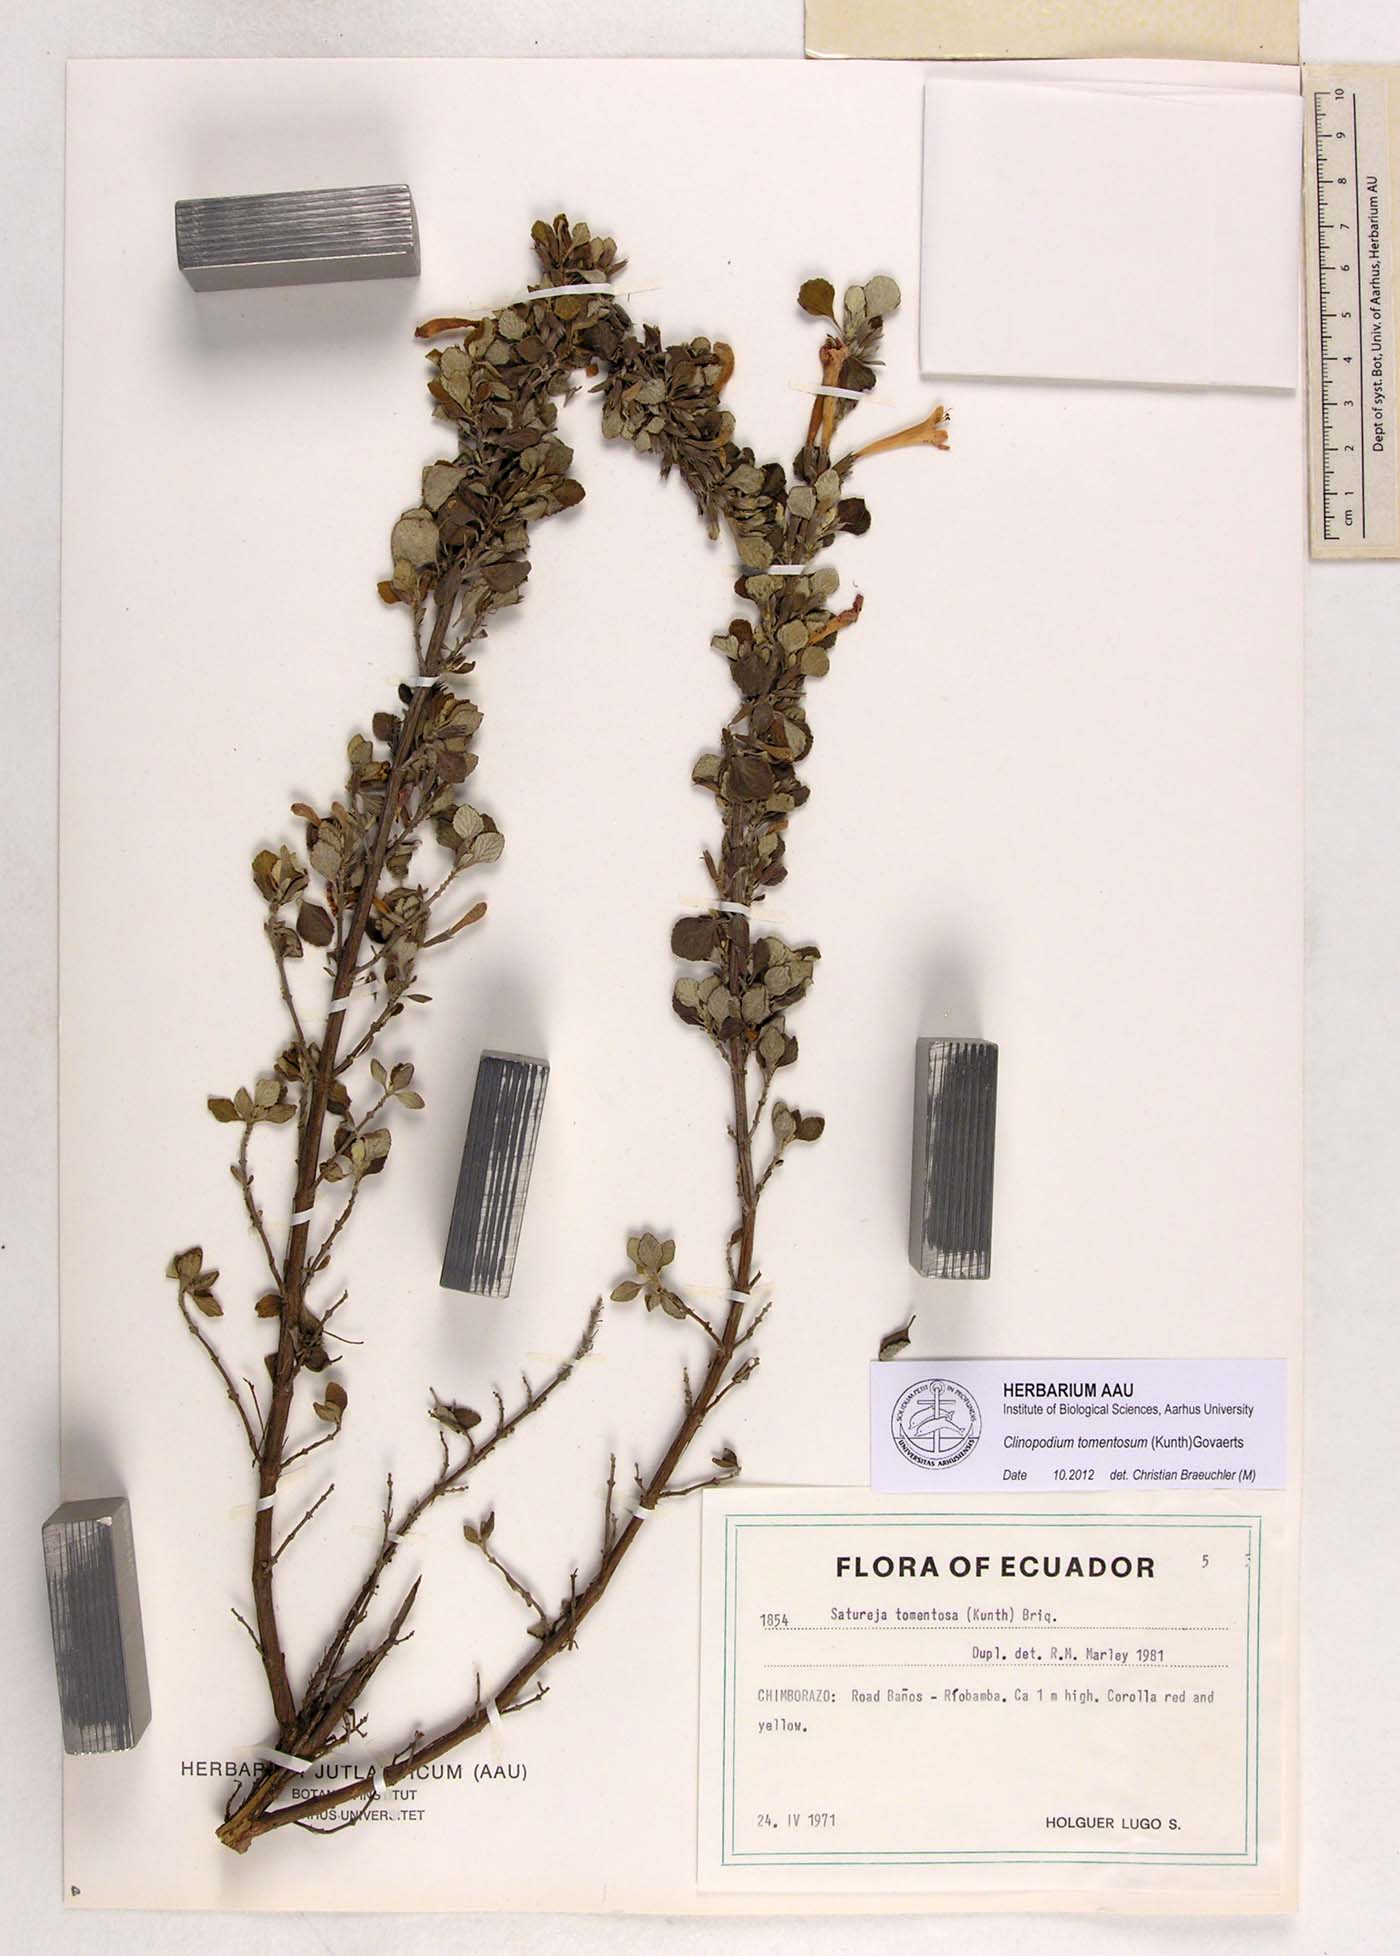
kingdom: Plantae
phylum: Tracheophyta
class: Magnoliopsida
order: Lamiales
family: Lamiaceae
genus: Clinopodium
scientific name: Clinopodium tomentosum
